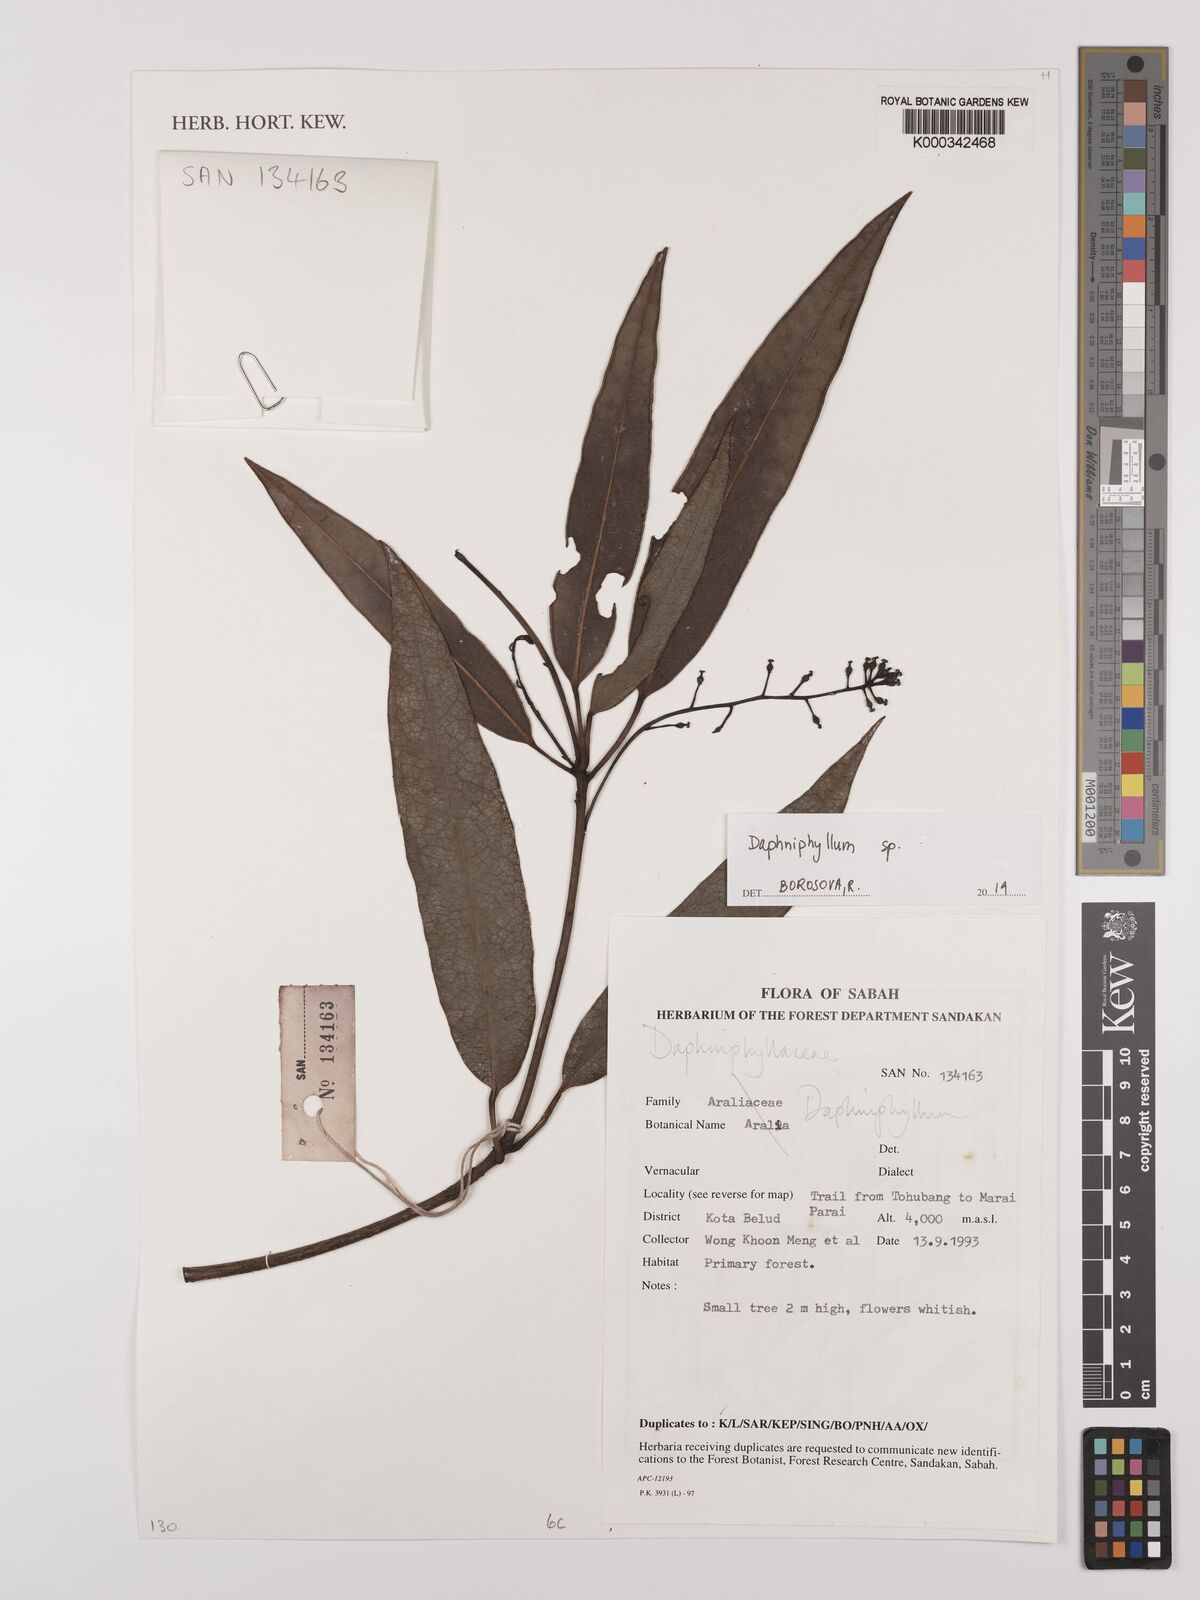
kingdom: Plantae
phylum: Tracheophyta
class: Magnoliopsida
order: Saxifragales
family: Daphniphyllaceae
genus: Daphniphyllum
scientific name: Daphniphyllum
